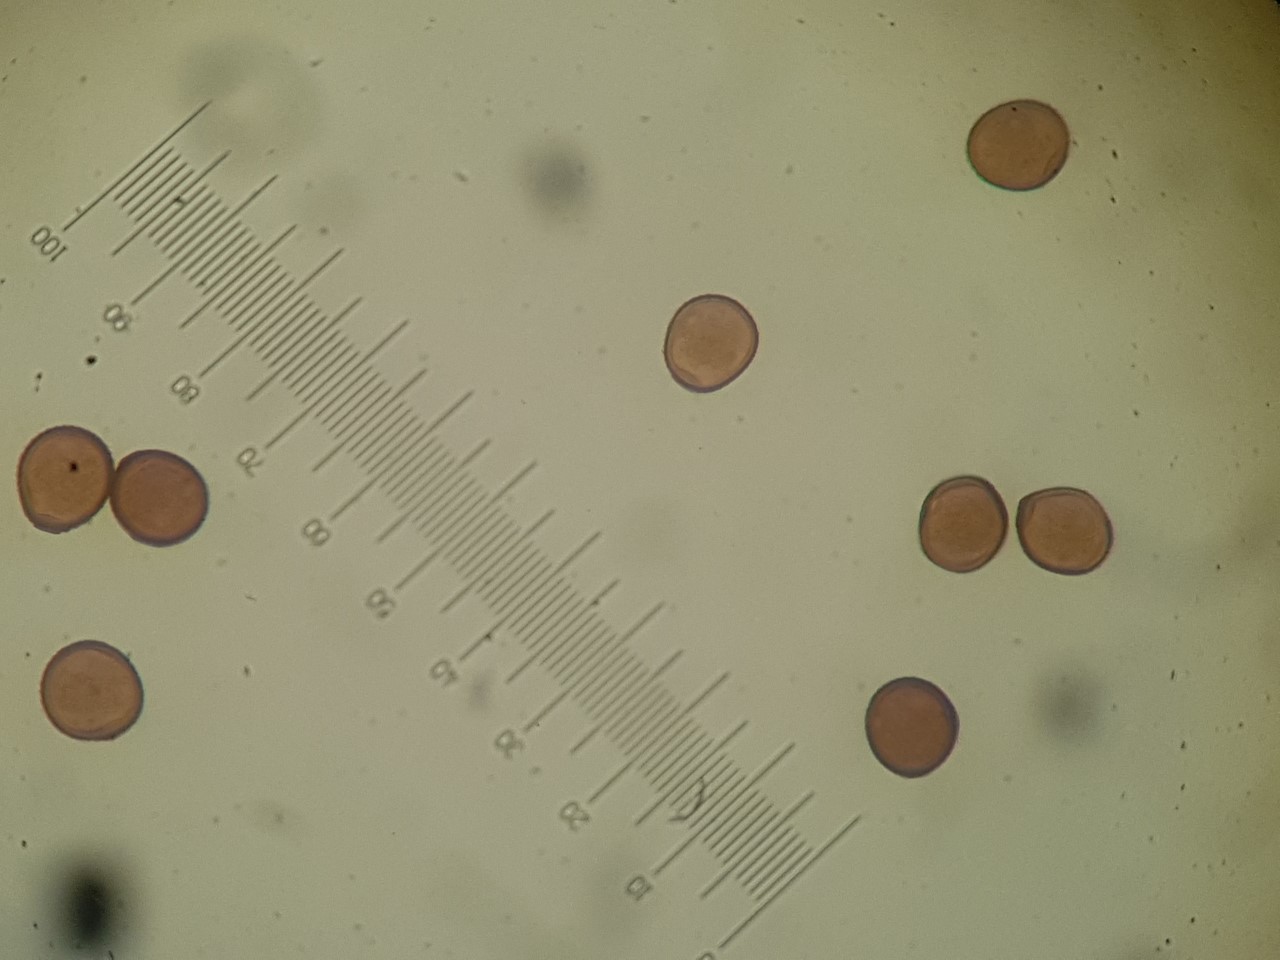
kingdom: Fungi
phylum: Basidiomycota
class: Pucciniomycetes
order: Pucciniales
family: Pucciniaceae
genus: Puccinia
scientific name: Puccinia hieracii
